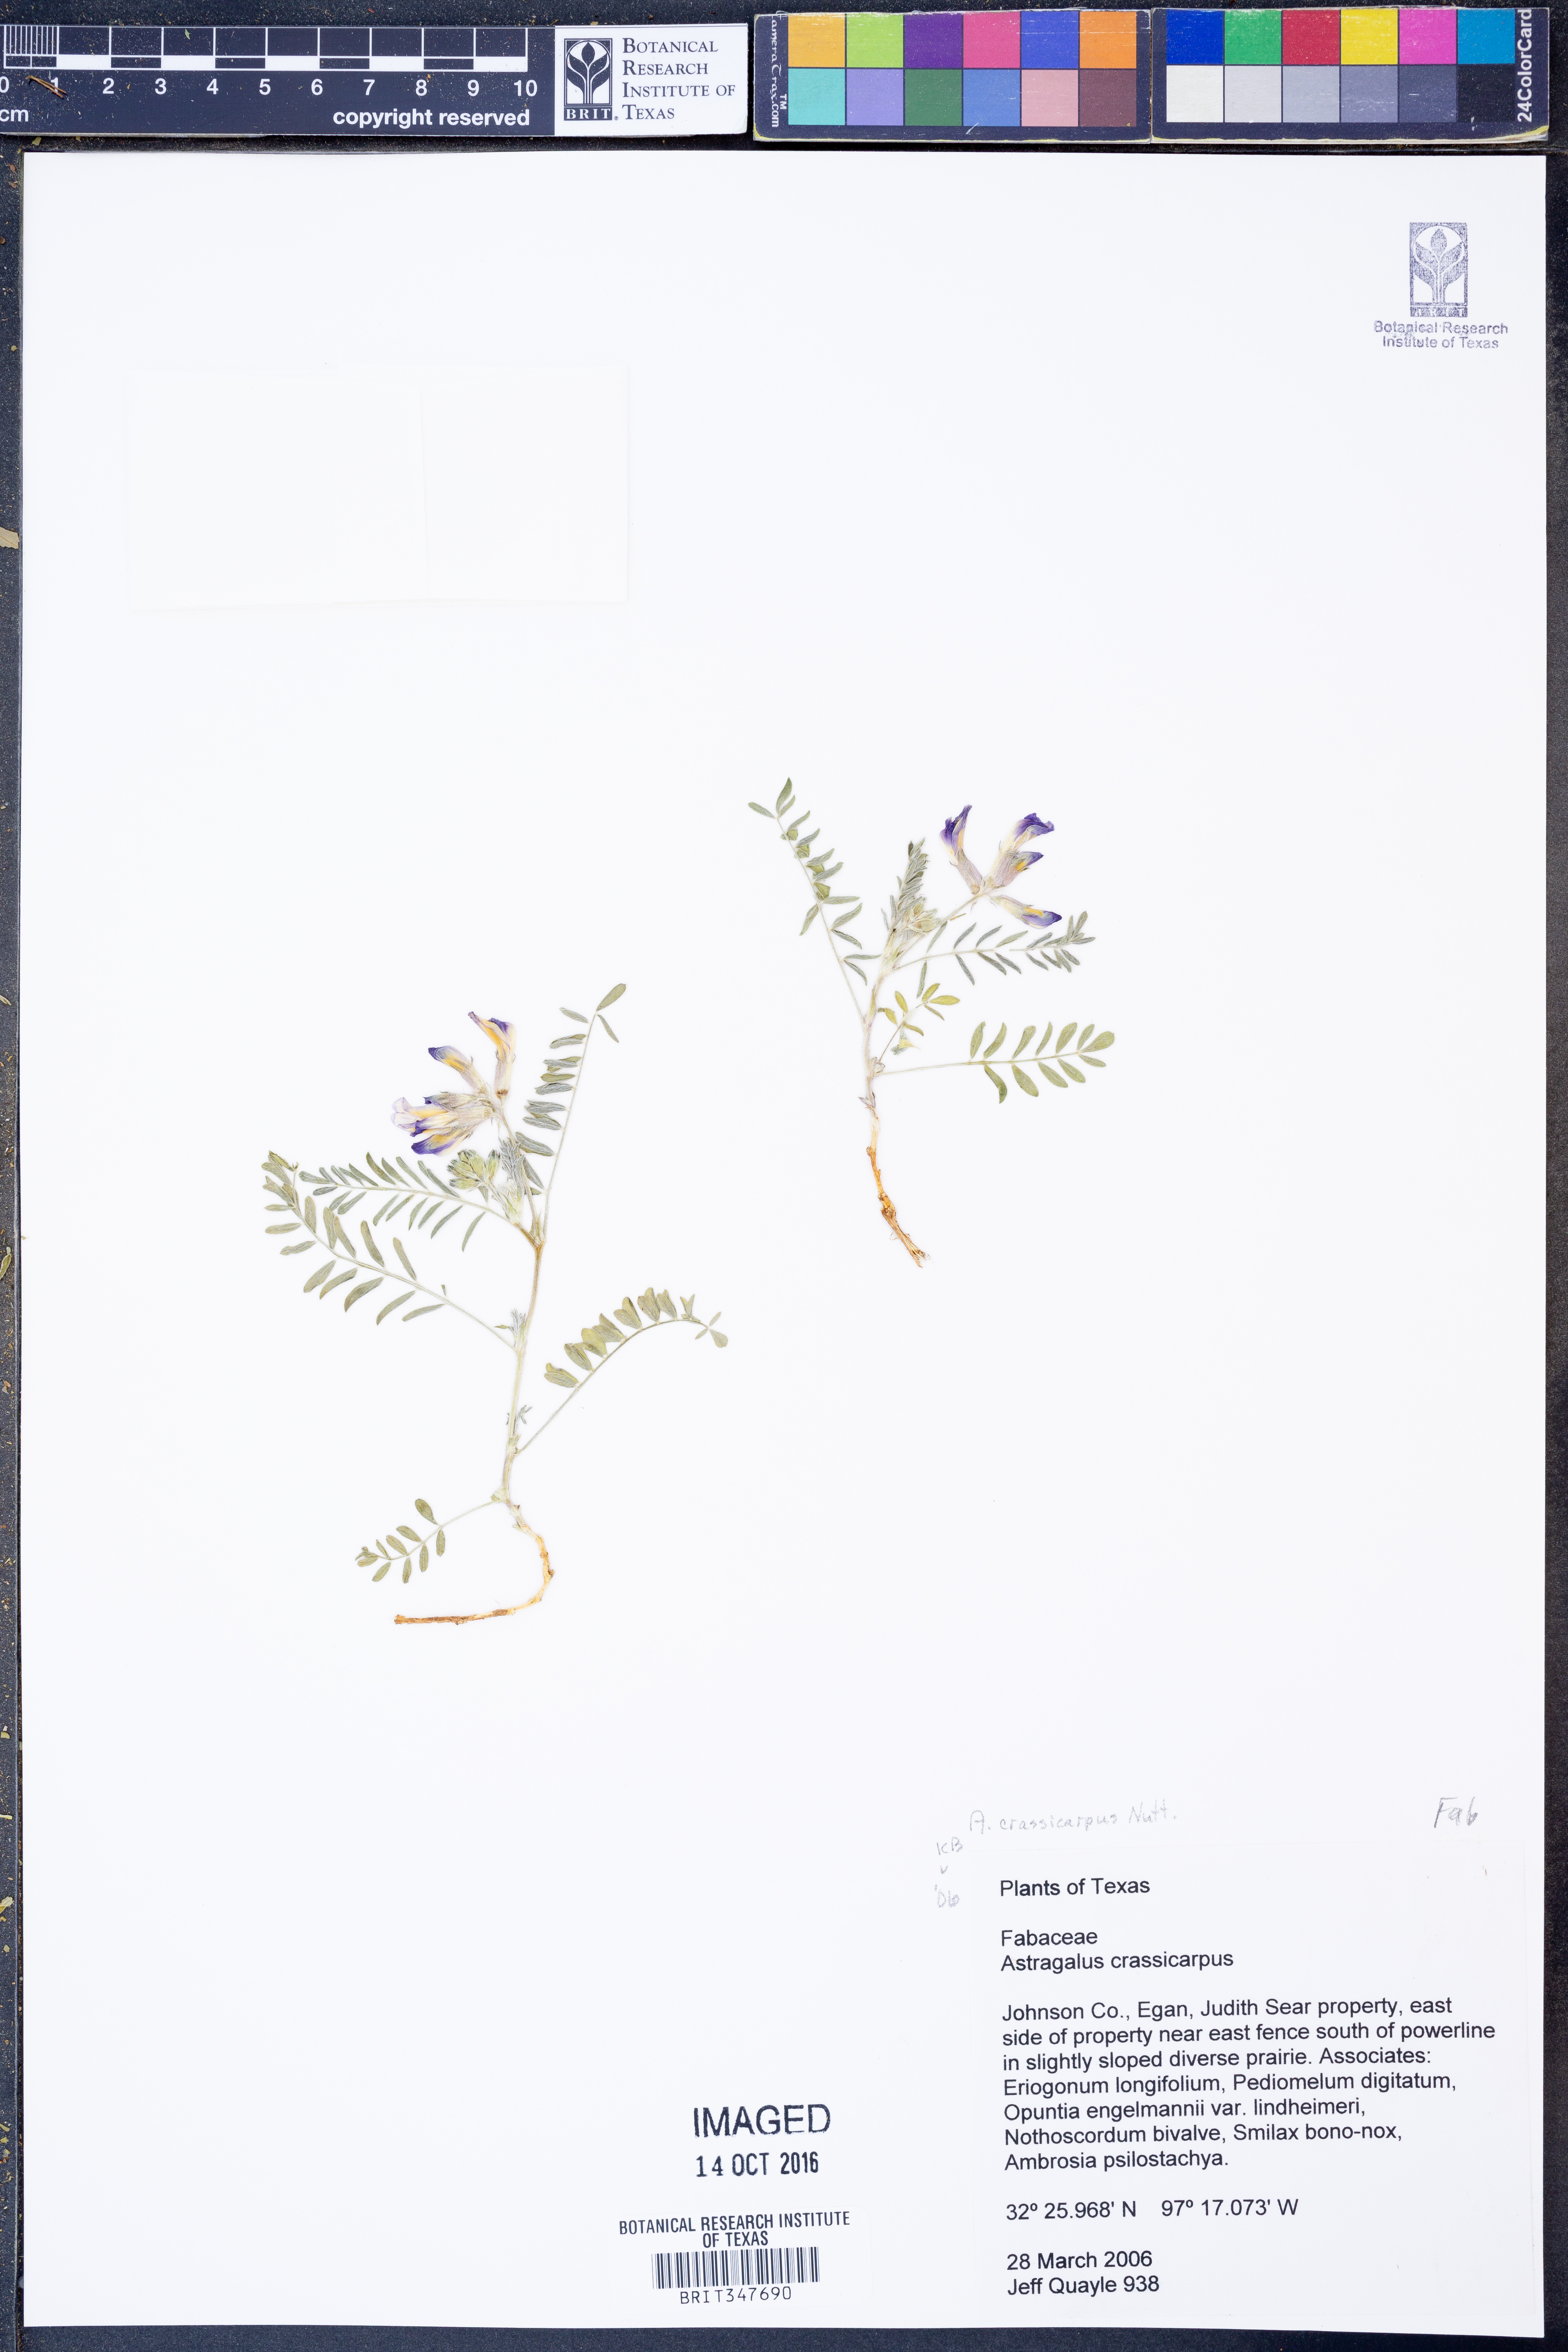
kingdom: Plantae
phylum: Tracheophyta
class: Magnoliopsida
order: Fabales
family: Fabaceae
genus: Astragalus
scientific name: Astragalus crassicarpus
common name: Ground-plum milk-vetch
